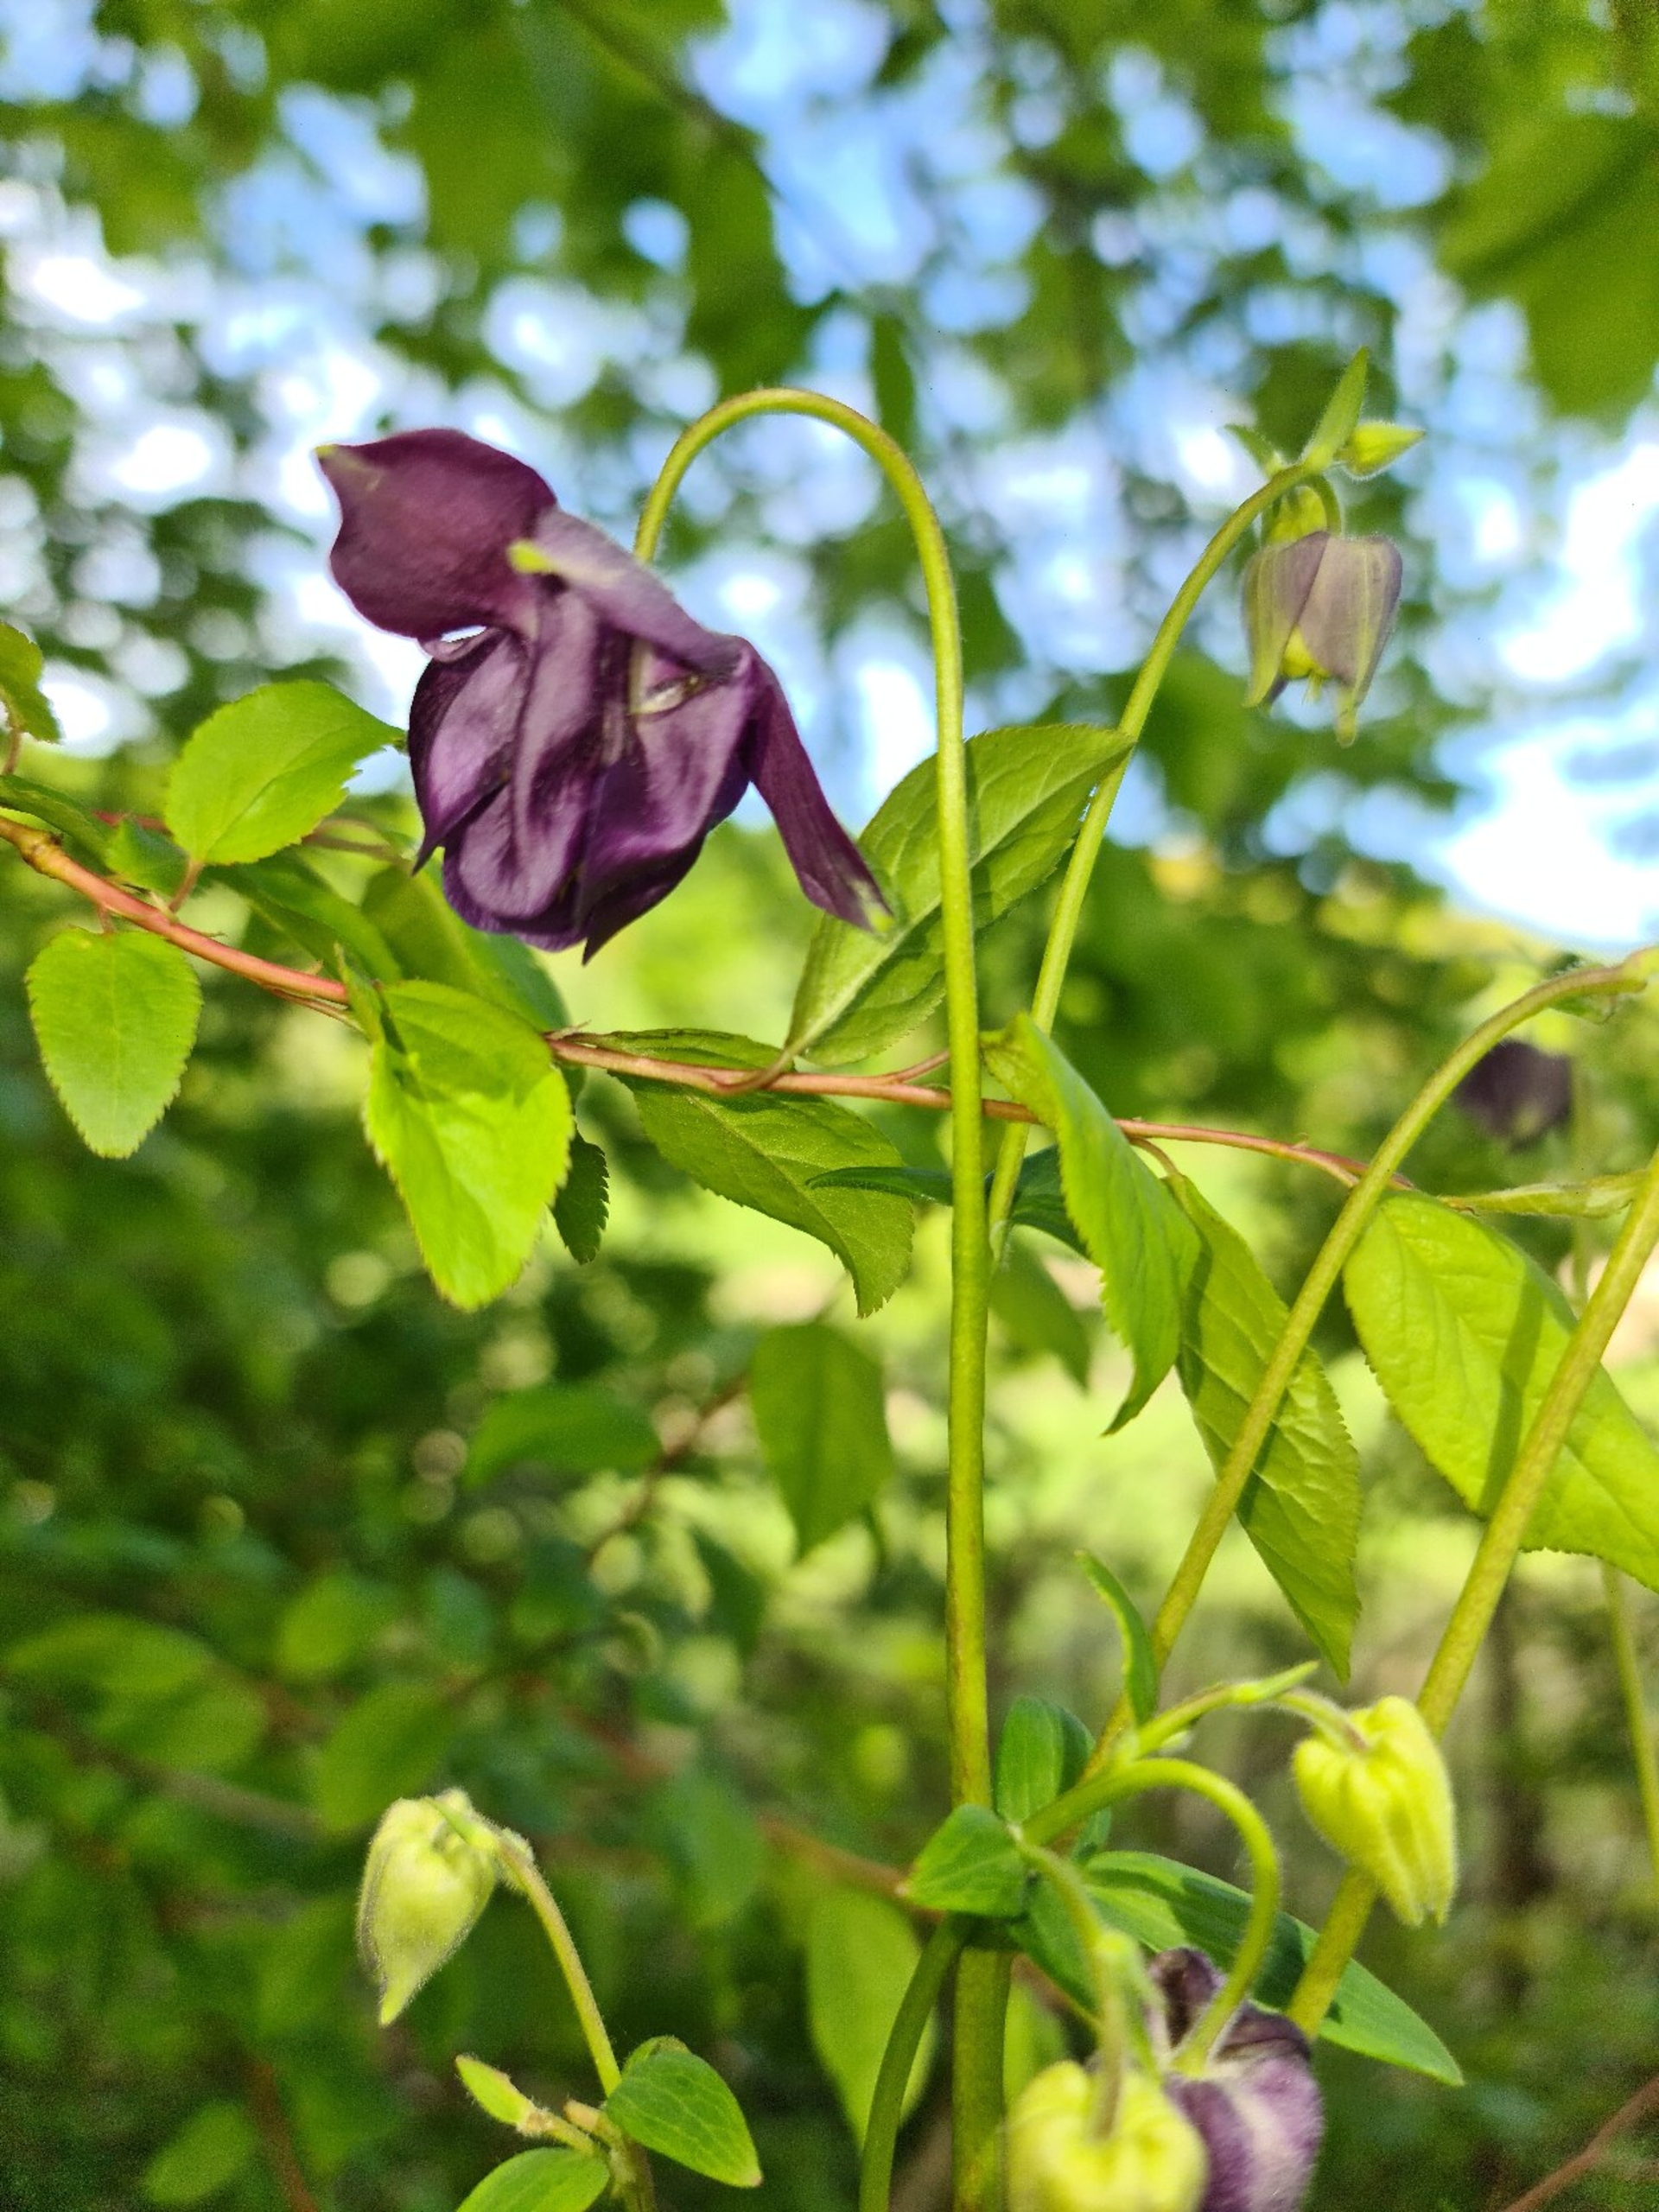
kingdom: Plantae
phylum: Tracheophyta
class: Magnoliopsida
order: Ranunculales
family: Ranunculaceae
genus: Aquilegia
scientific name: Aquilegia vulgaris
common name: Akeleje
